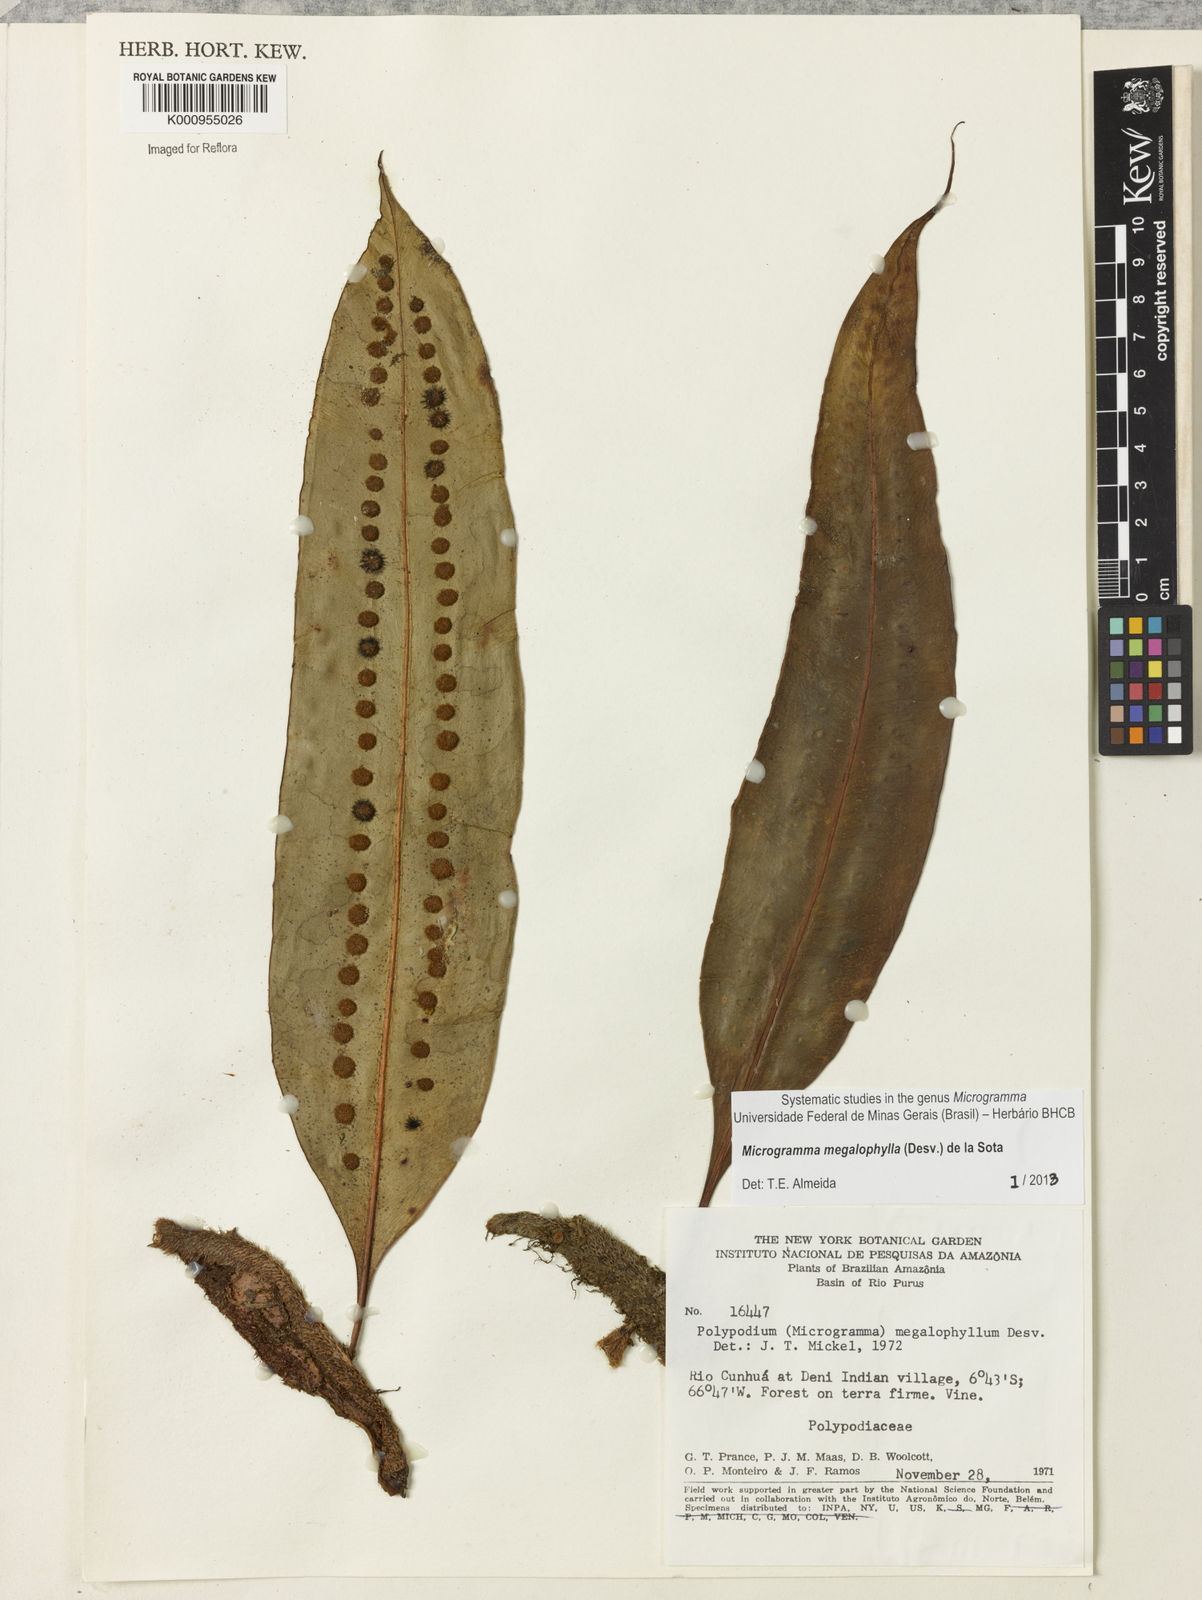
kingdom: Plantae
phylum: Tracheophyta
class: Polypodiopsida
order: Polypodiales
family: Polypodiaceae
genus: Microgramma
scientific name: Microgramma megalophylla
